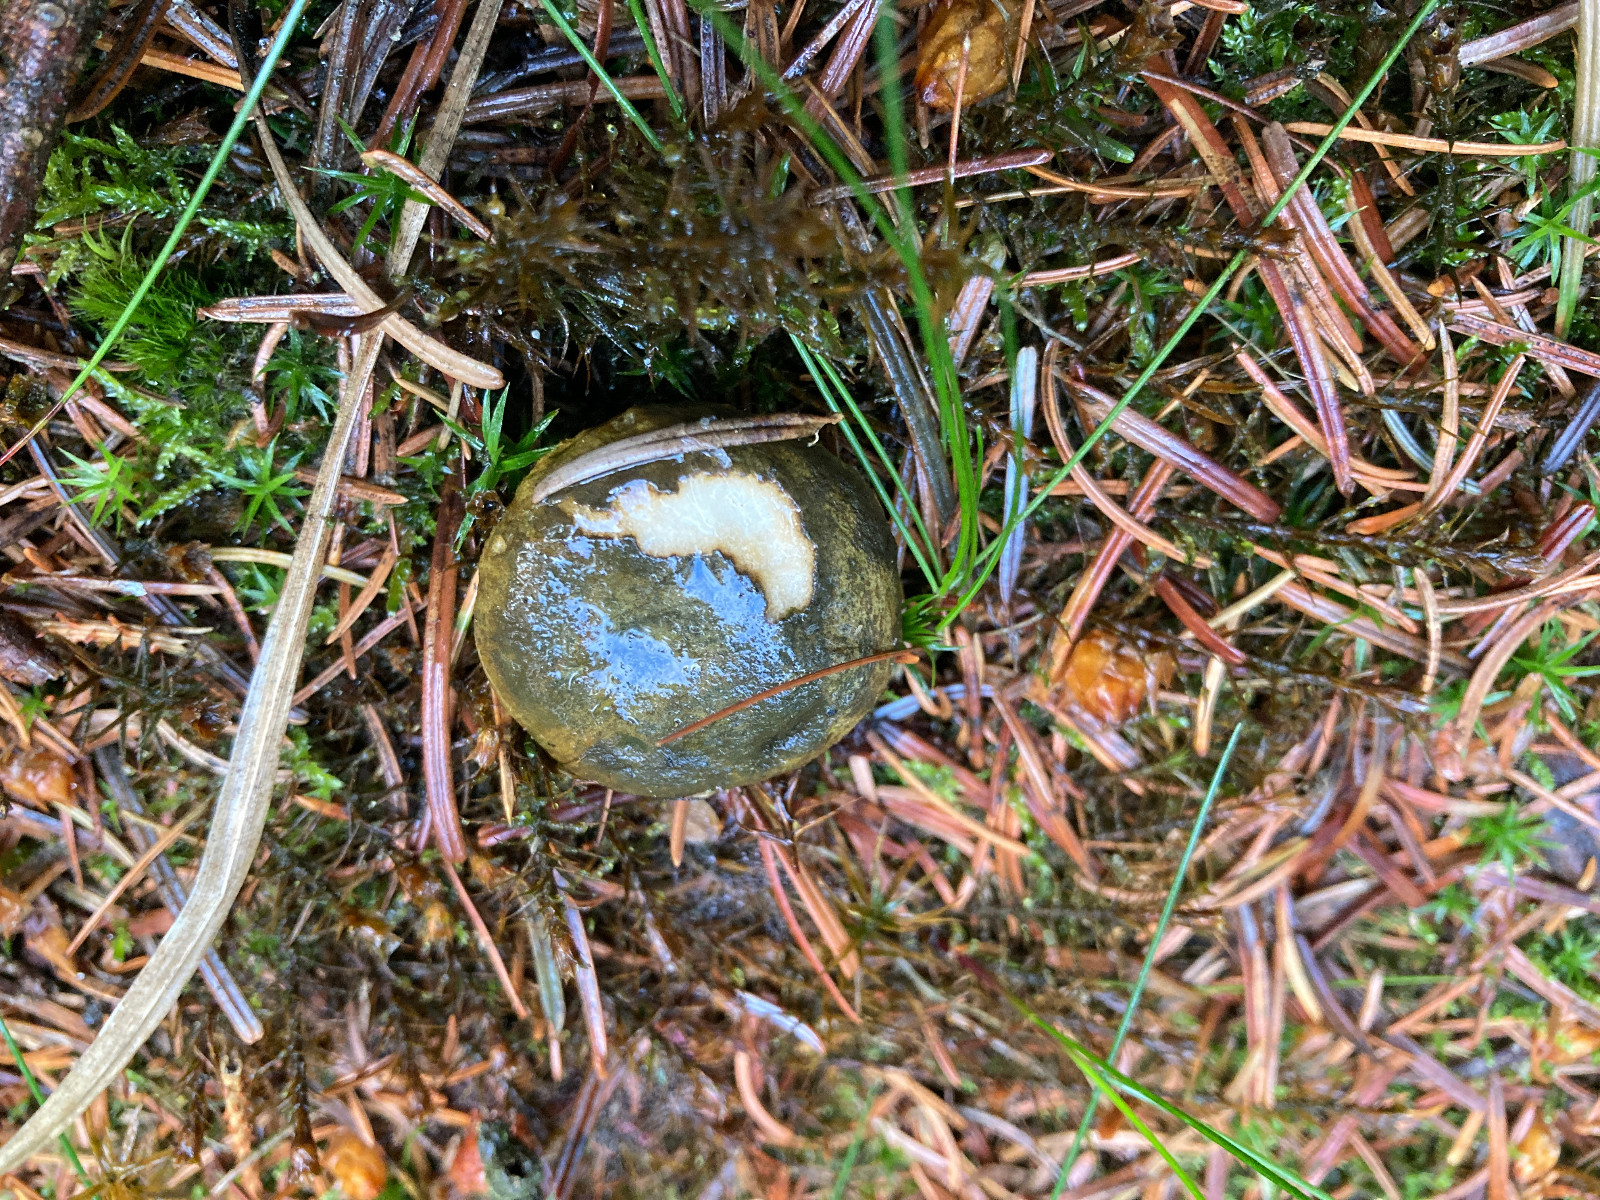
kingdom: Fungi
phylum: Basidiomycota
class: Agaricomycetes
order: Russulales
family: Russulaceae
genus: Lactarius
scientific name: Lactarius necator
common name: manddraber-mælkehat
